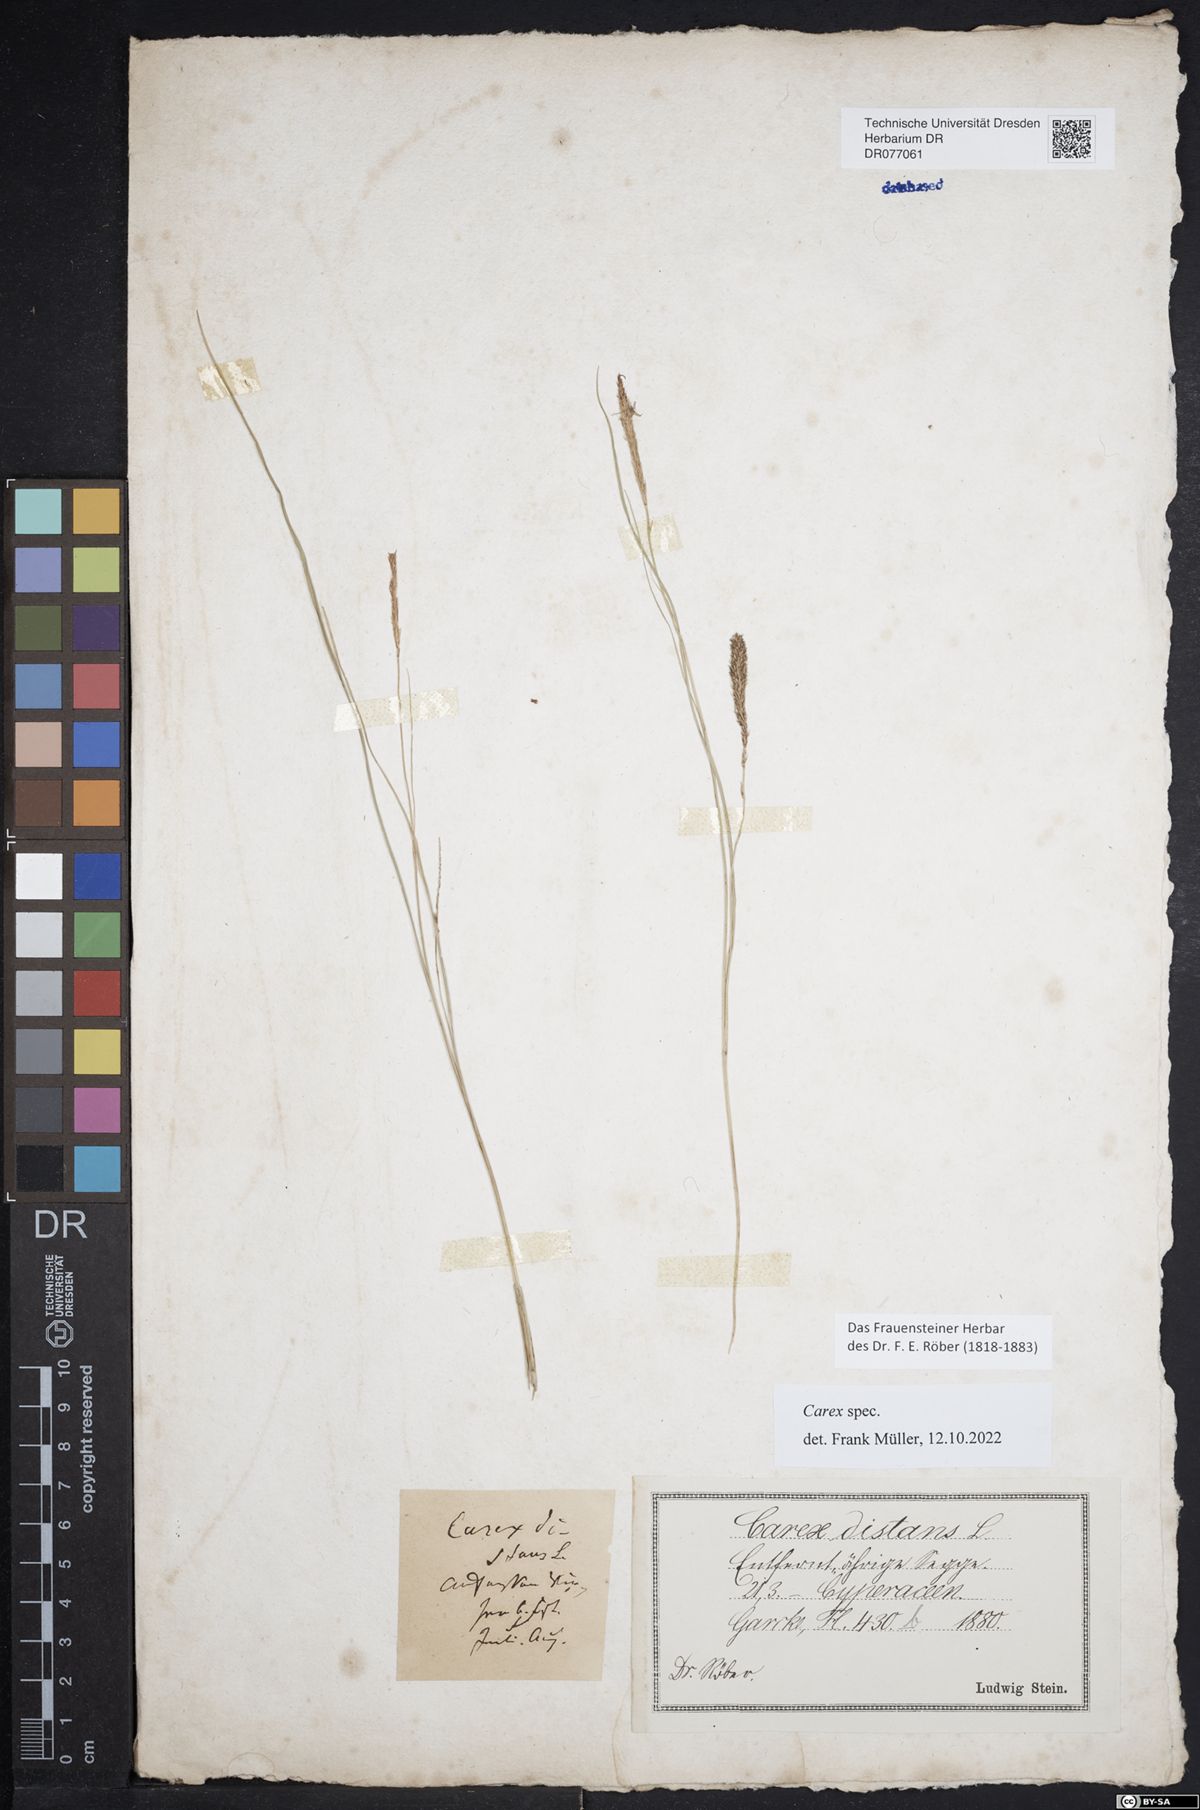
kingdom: Plantae
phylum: Tracheophyta
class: Liliopsida
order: Poales
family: Cyperaceae
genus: Carex
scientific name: Carex
